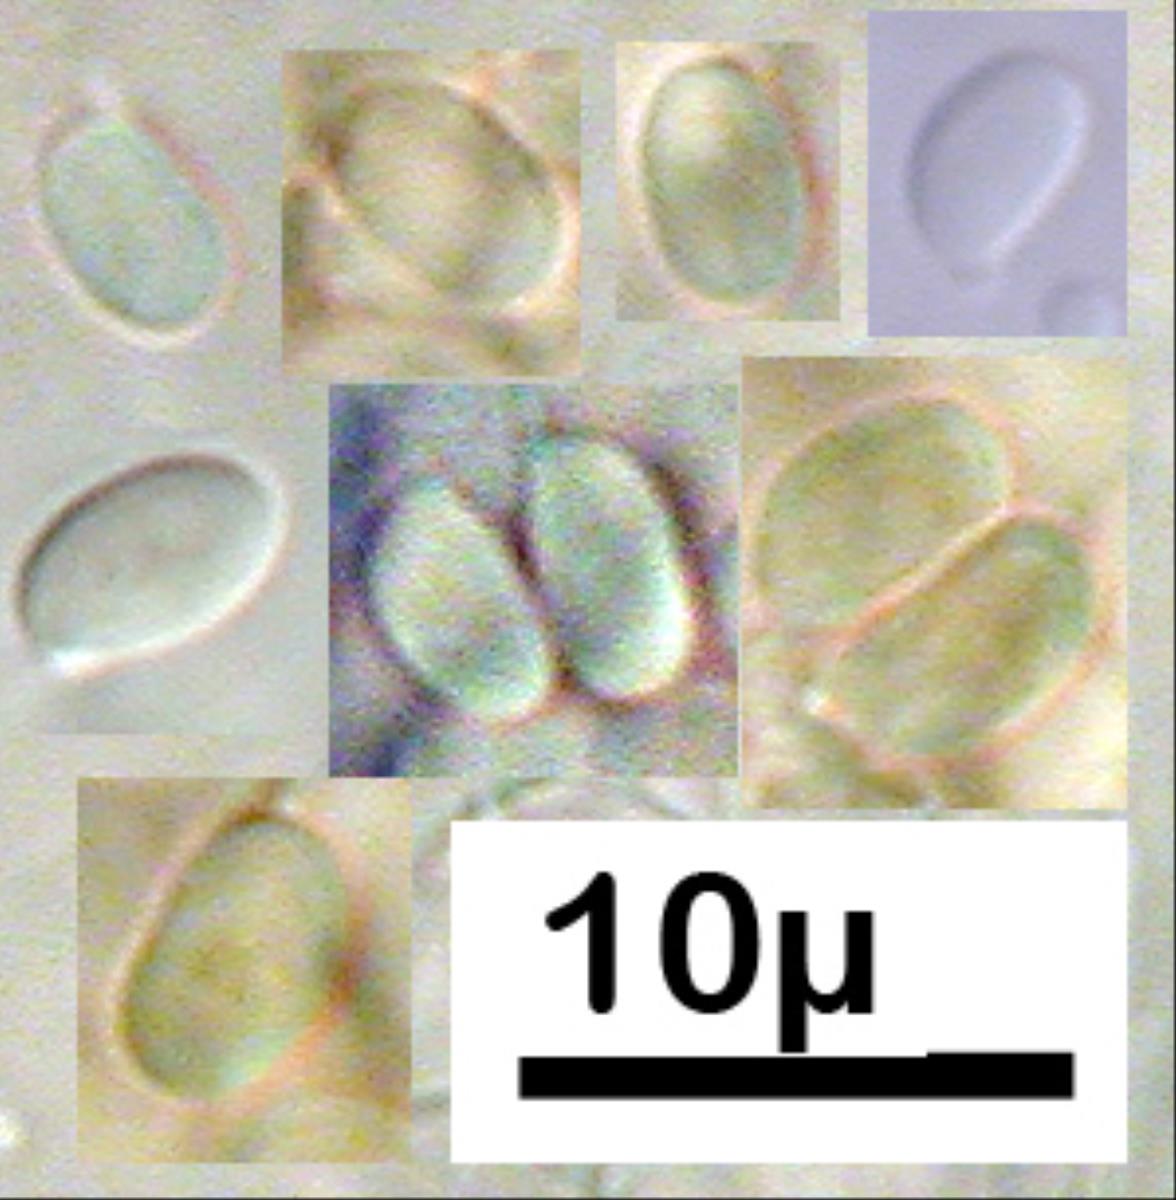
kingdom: Fungi
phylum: Basidiomycota
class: Agaricomycetes
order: Agaricales
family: Tricholomataceae
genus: Clitocybe
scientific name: Clitocybe wellingtonensis
